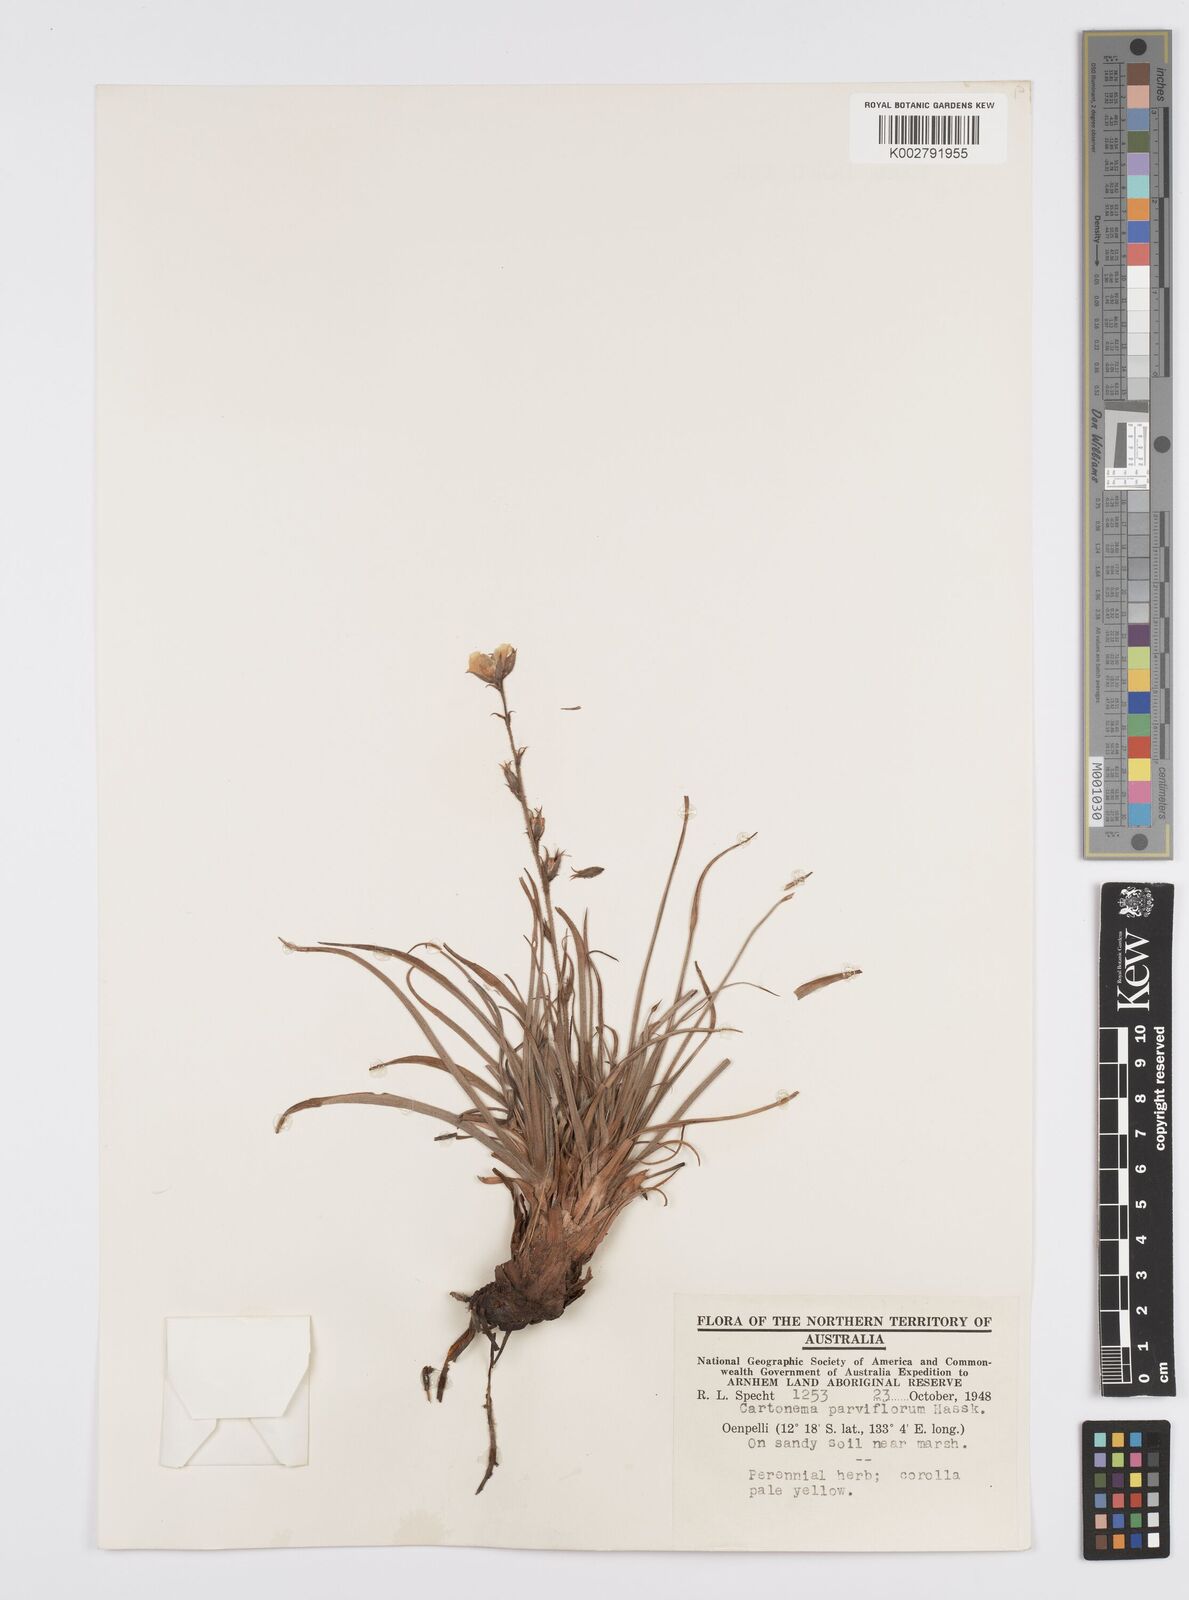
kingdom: Plantae
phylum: Tracheophyta
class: Liliopsida
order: Commelinales
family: Commelinaceae
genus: Cartonema
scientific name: Cartonema parviflorum
